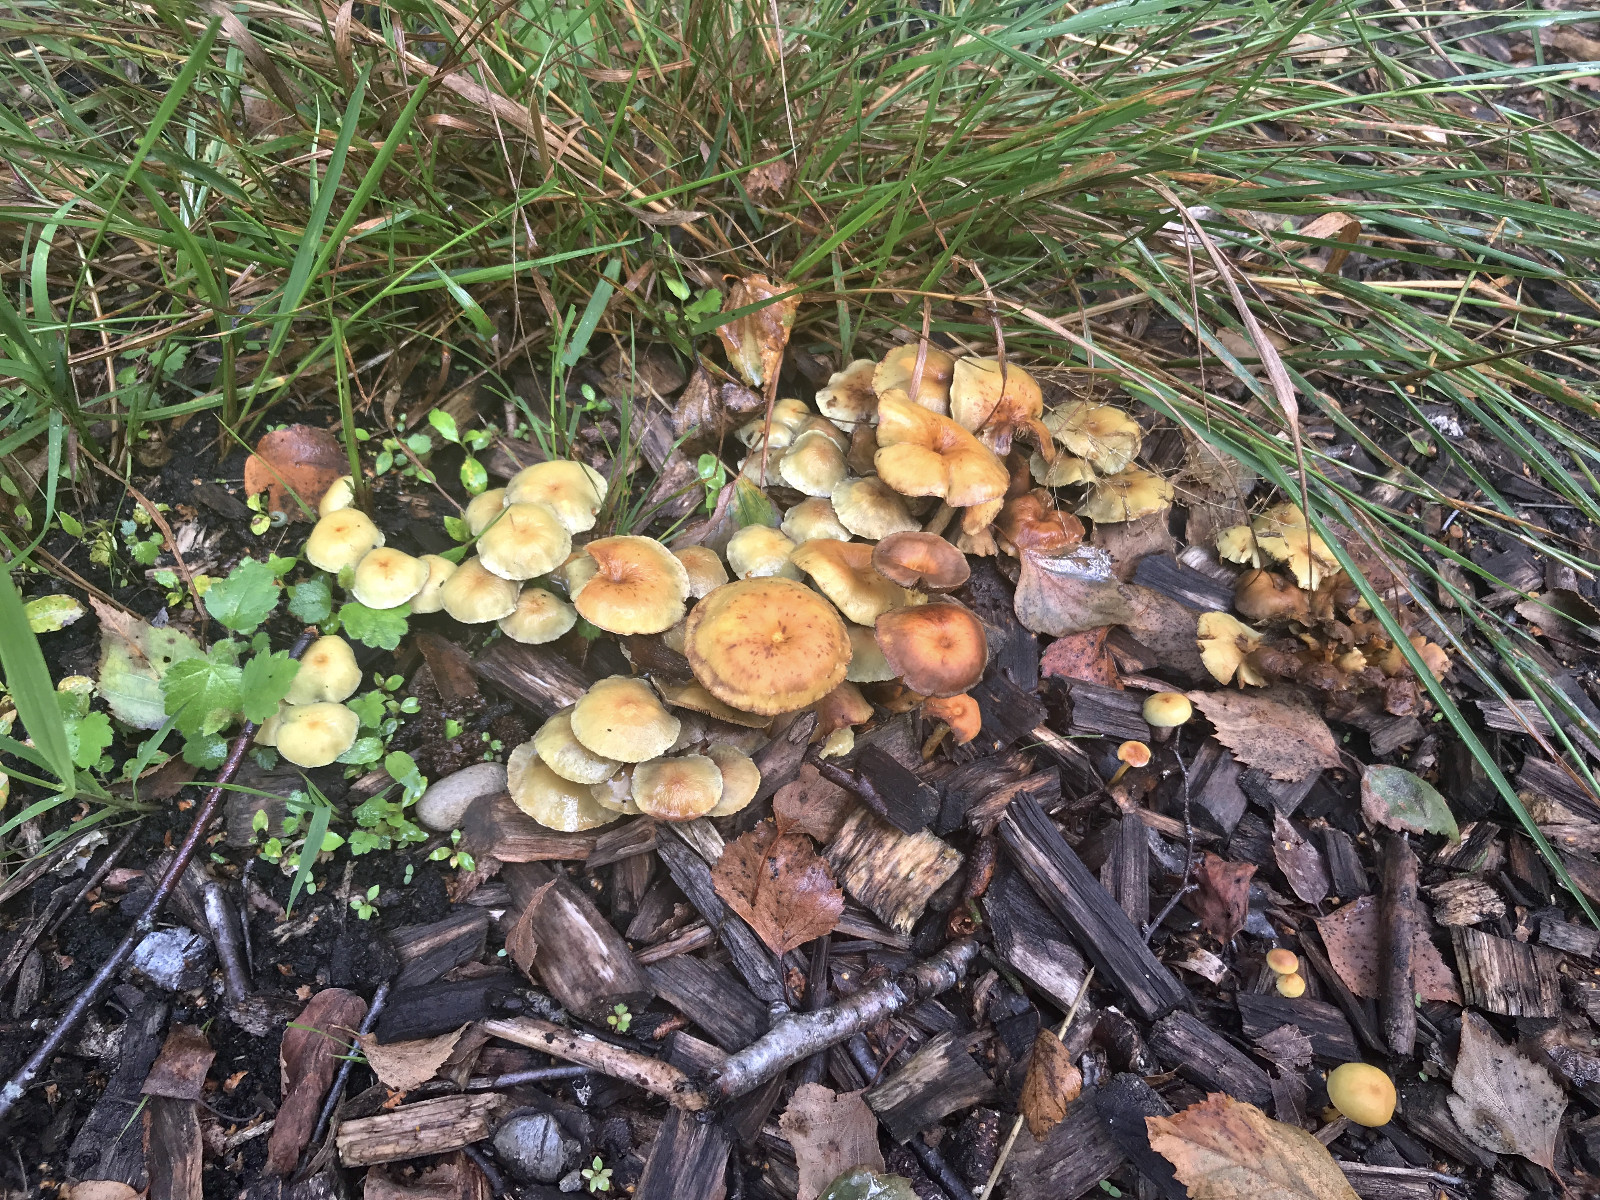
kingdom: Fungi
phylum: Basidiomycota
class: Agaricomycetes
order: Agaricales
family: Strophariaceae
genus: Hypholoma
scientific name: Hypholoma fasciculare
